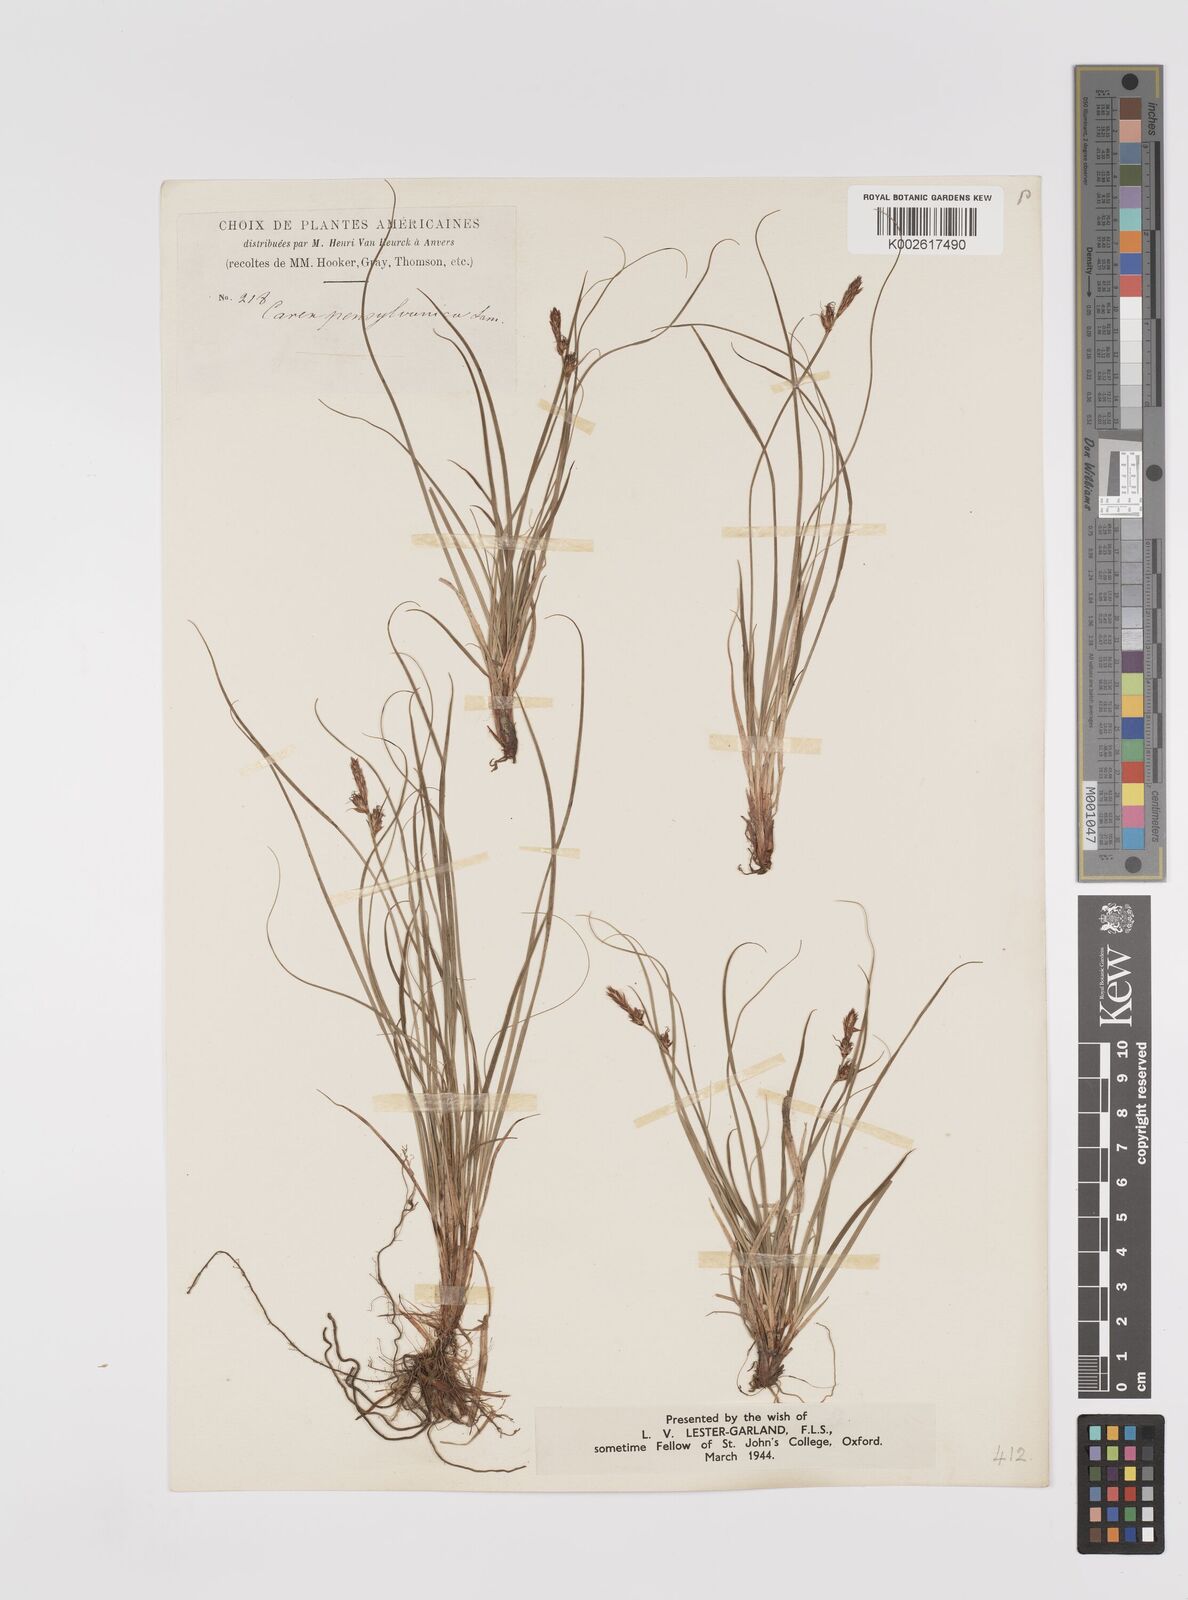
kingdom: Plantae
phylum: Tracheophyta
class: Liliopsida
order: Poales
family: Cyperaceae
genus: Carex
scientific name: Carex pensylvanica
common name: Common oak sedge
